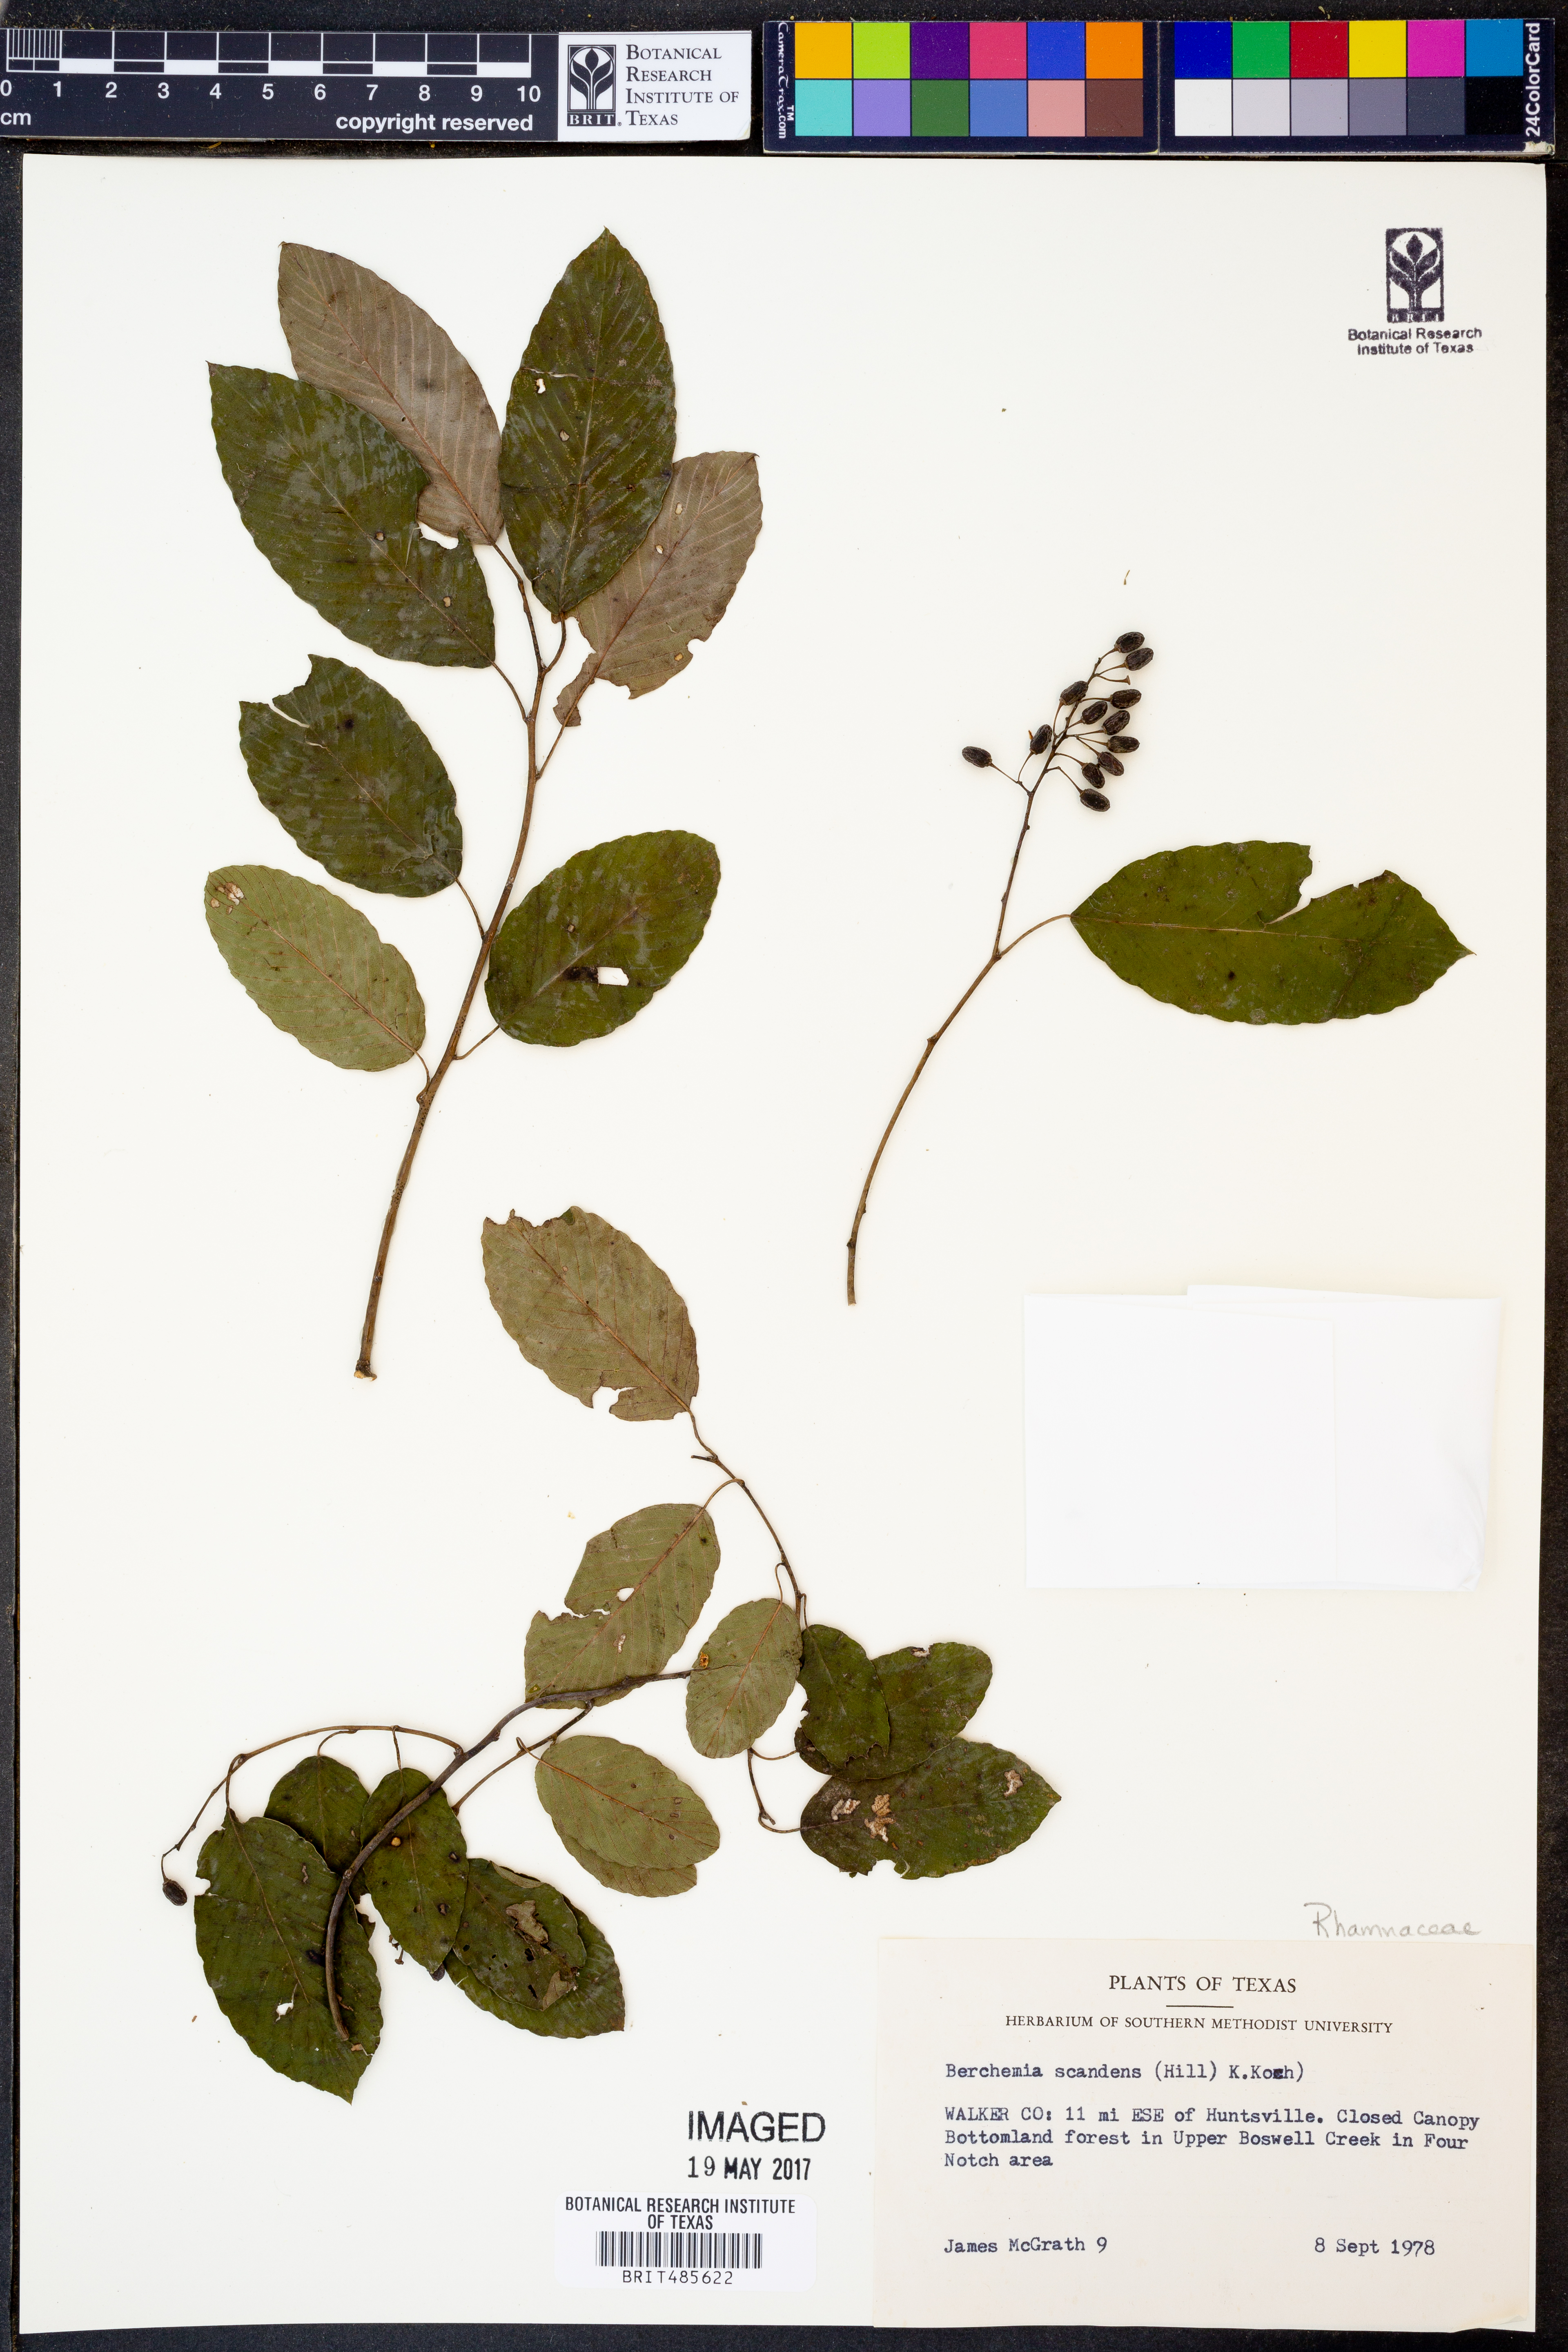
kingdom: Plantae
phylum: Tracheophyta
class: Magnoliopsida
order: Rosales
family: Rhamnaceae
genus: Berchemia
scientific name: Berchemia scandens
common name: Supplejack
